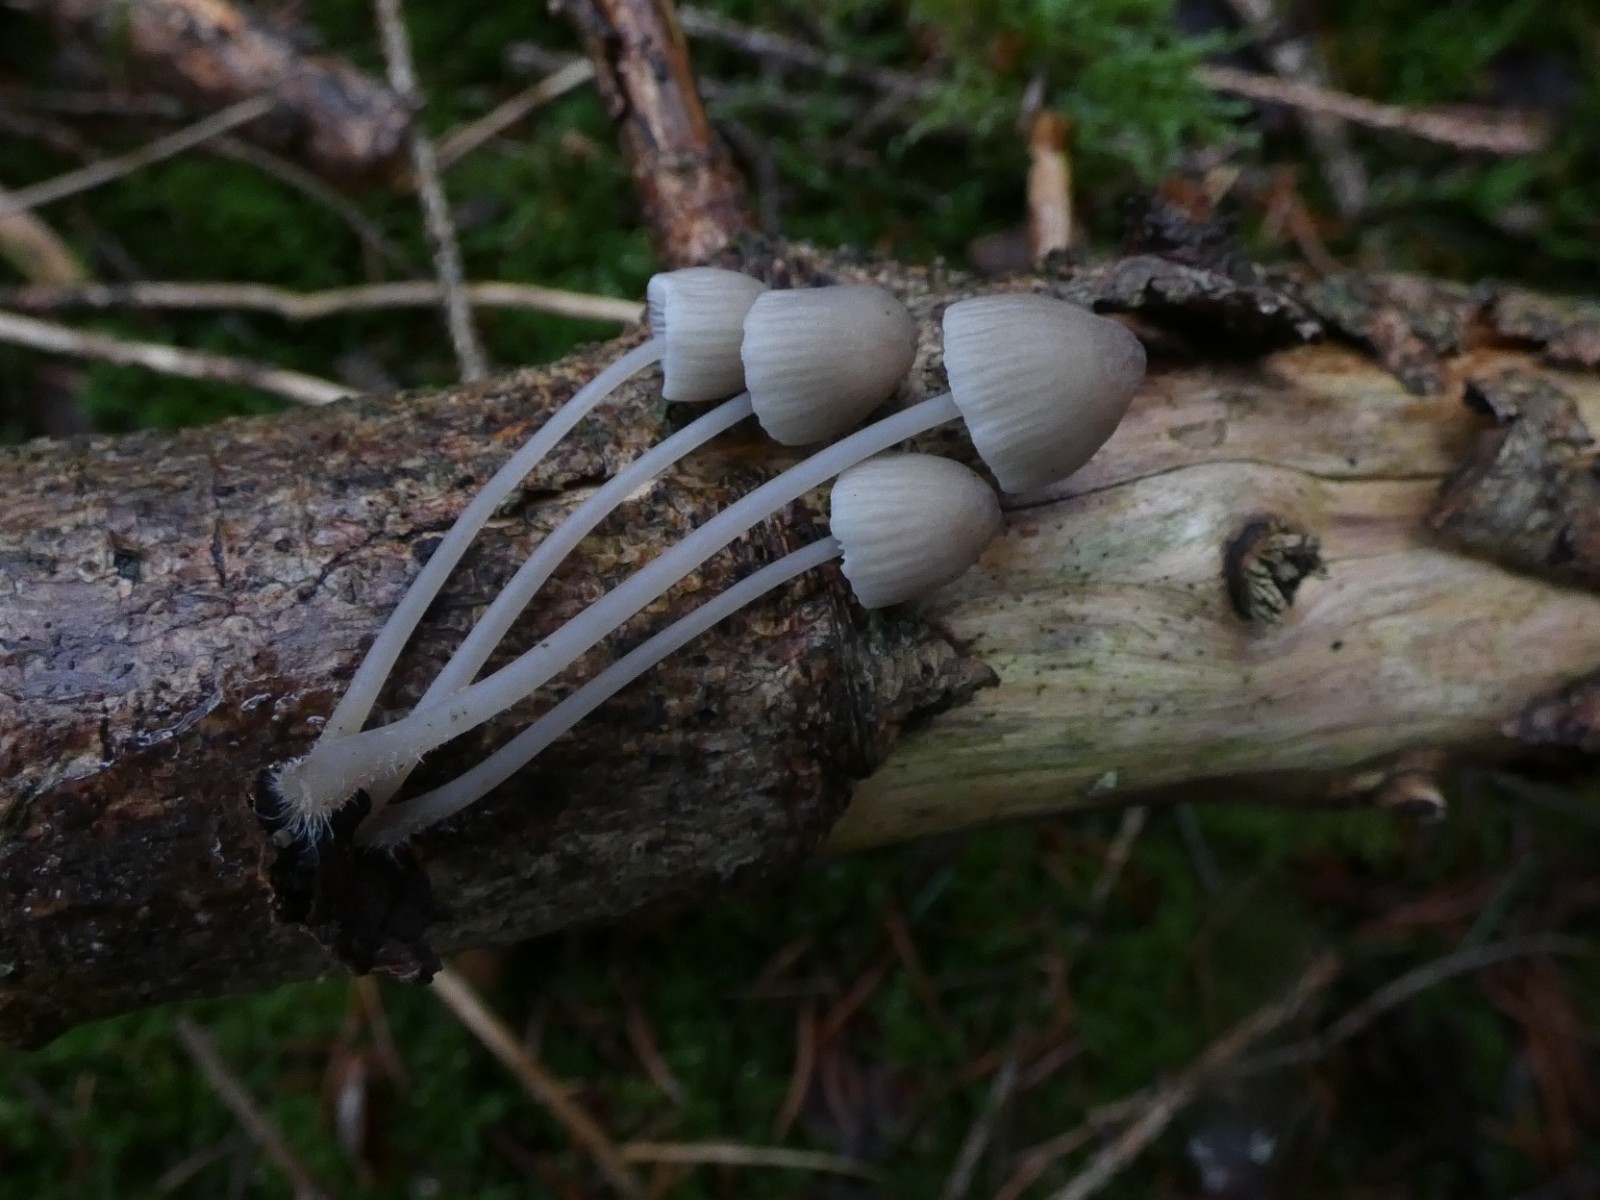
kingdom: Fungi
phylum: Basidiomycota
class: Agaricomycetes
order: Agaricales
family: Mycenaceae
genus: Mycena
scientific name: Mycena filopes
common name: jod-huesvamp
